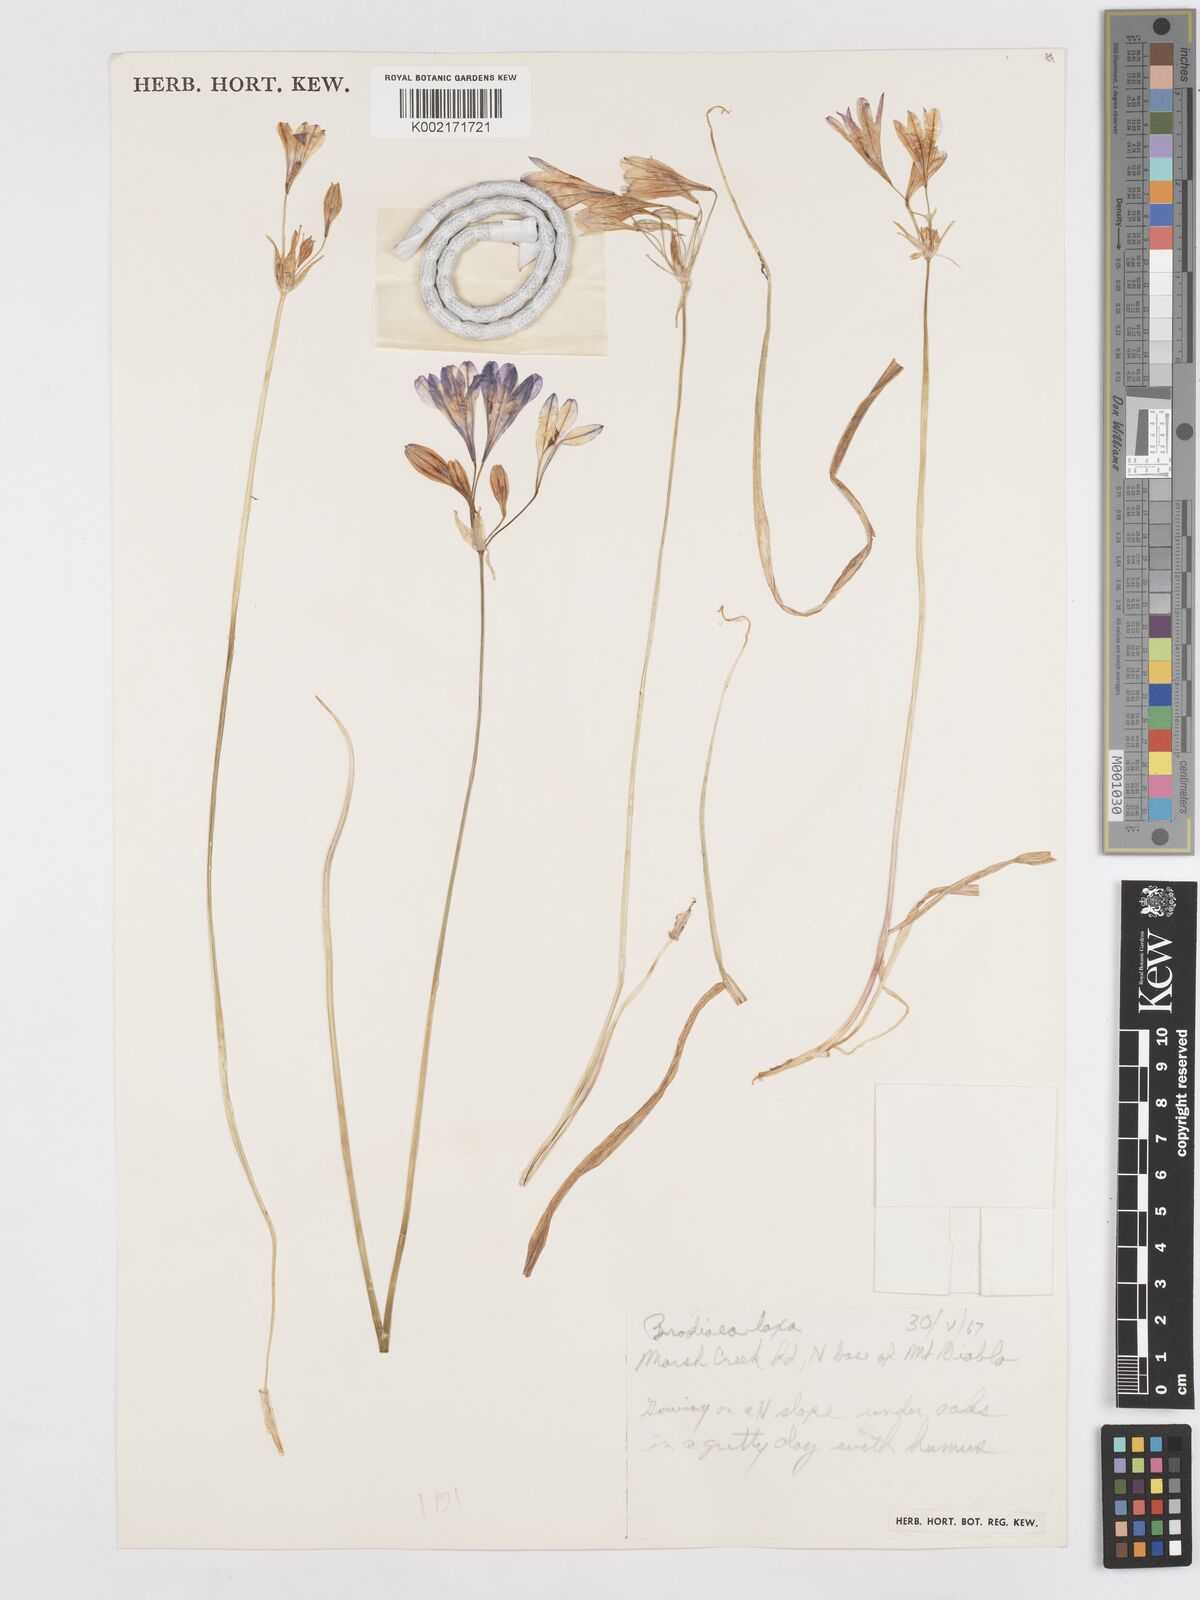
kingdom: Plantae
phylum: Tracheophyta
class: Liliopsida
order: Asparagales
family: Asparagaceae
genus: Triteleia
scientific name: Triteleia laxa
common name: Triplet-lily
